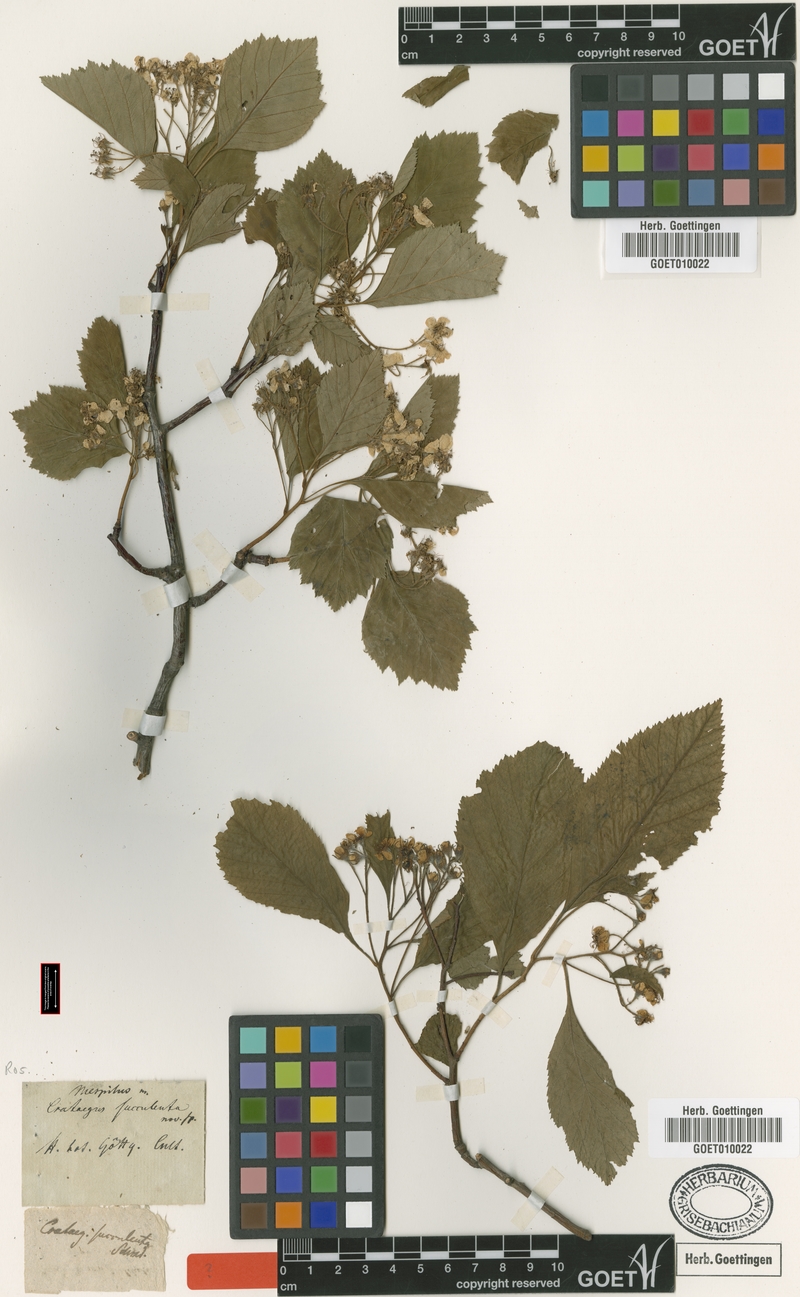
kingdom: Plantae
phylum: Tracheophyta
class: Magnoliopsida
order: Rosales
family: Rosaceae
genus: Crataegus
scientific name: Crataegus succulenta
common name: Fleshy hawthorn
